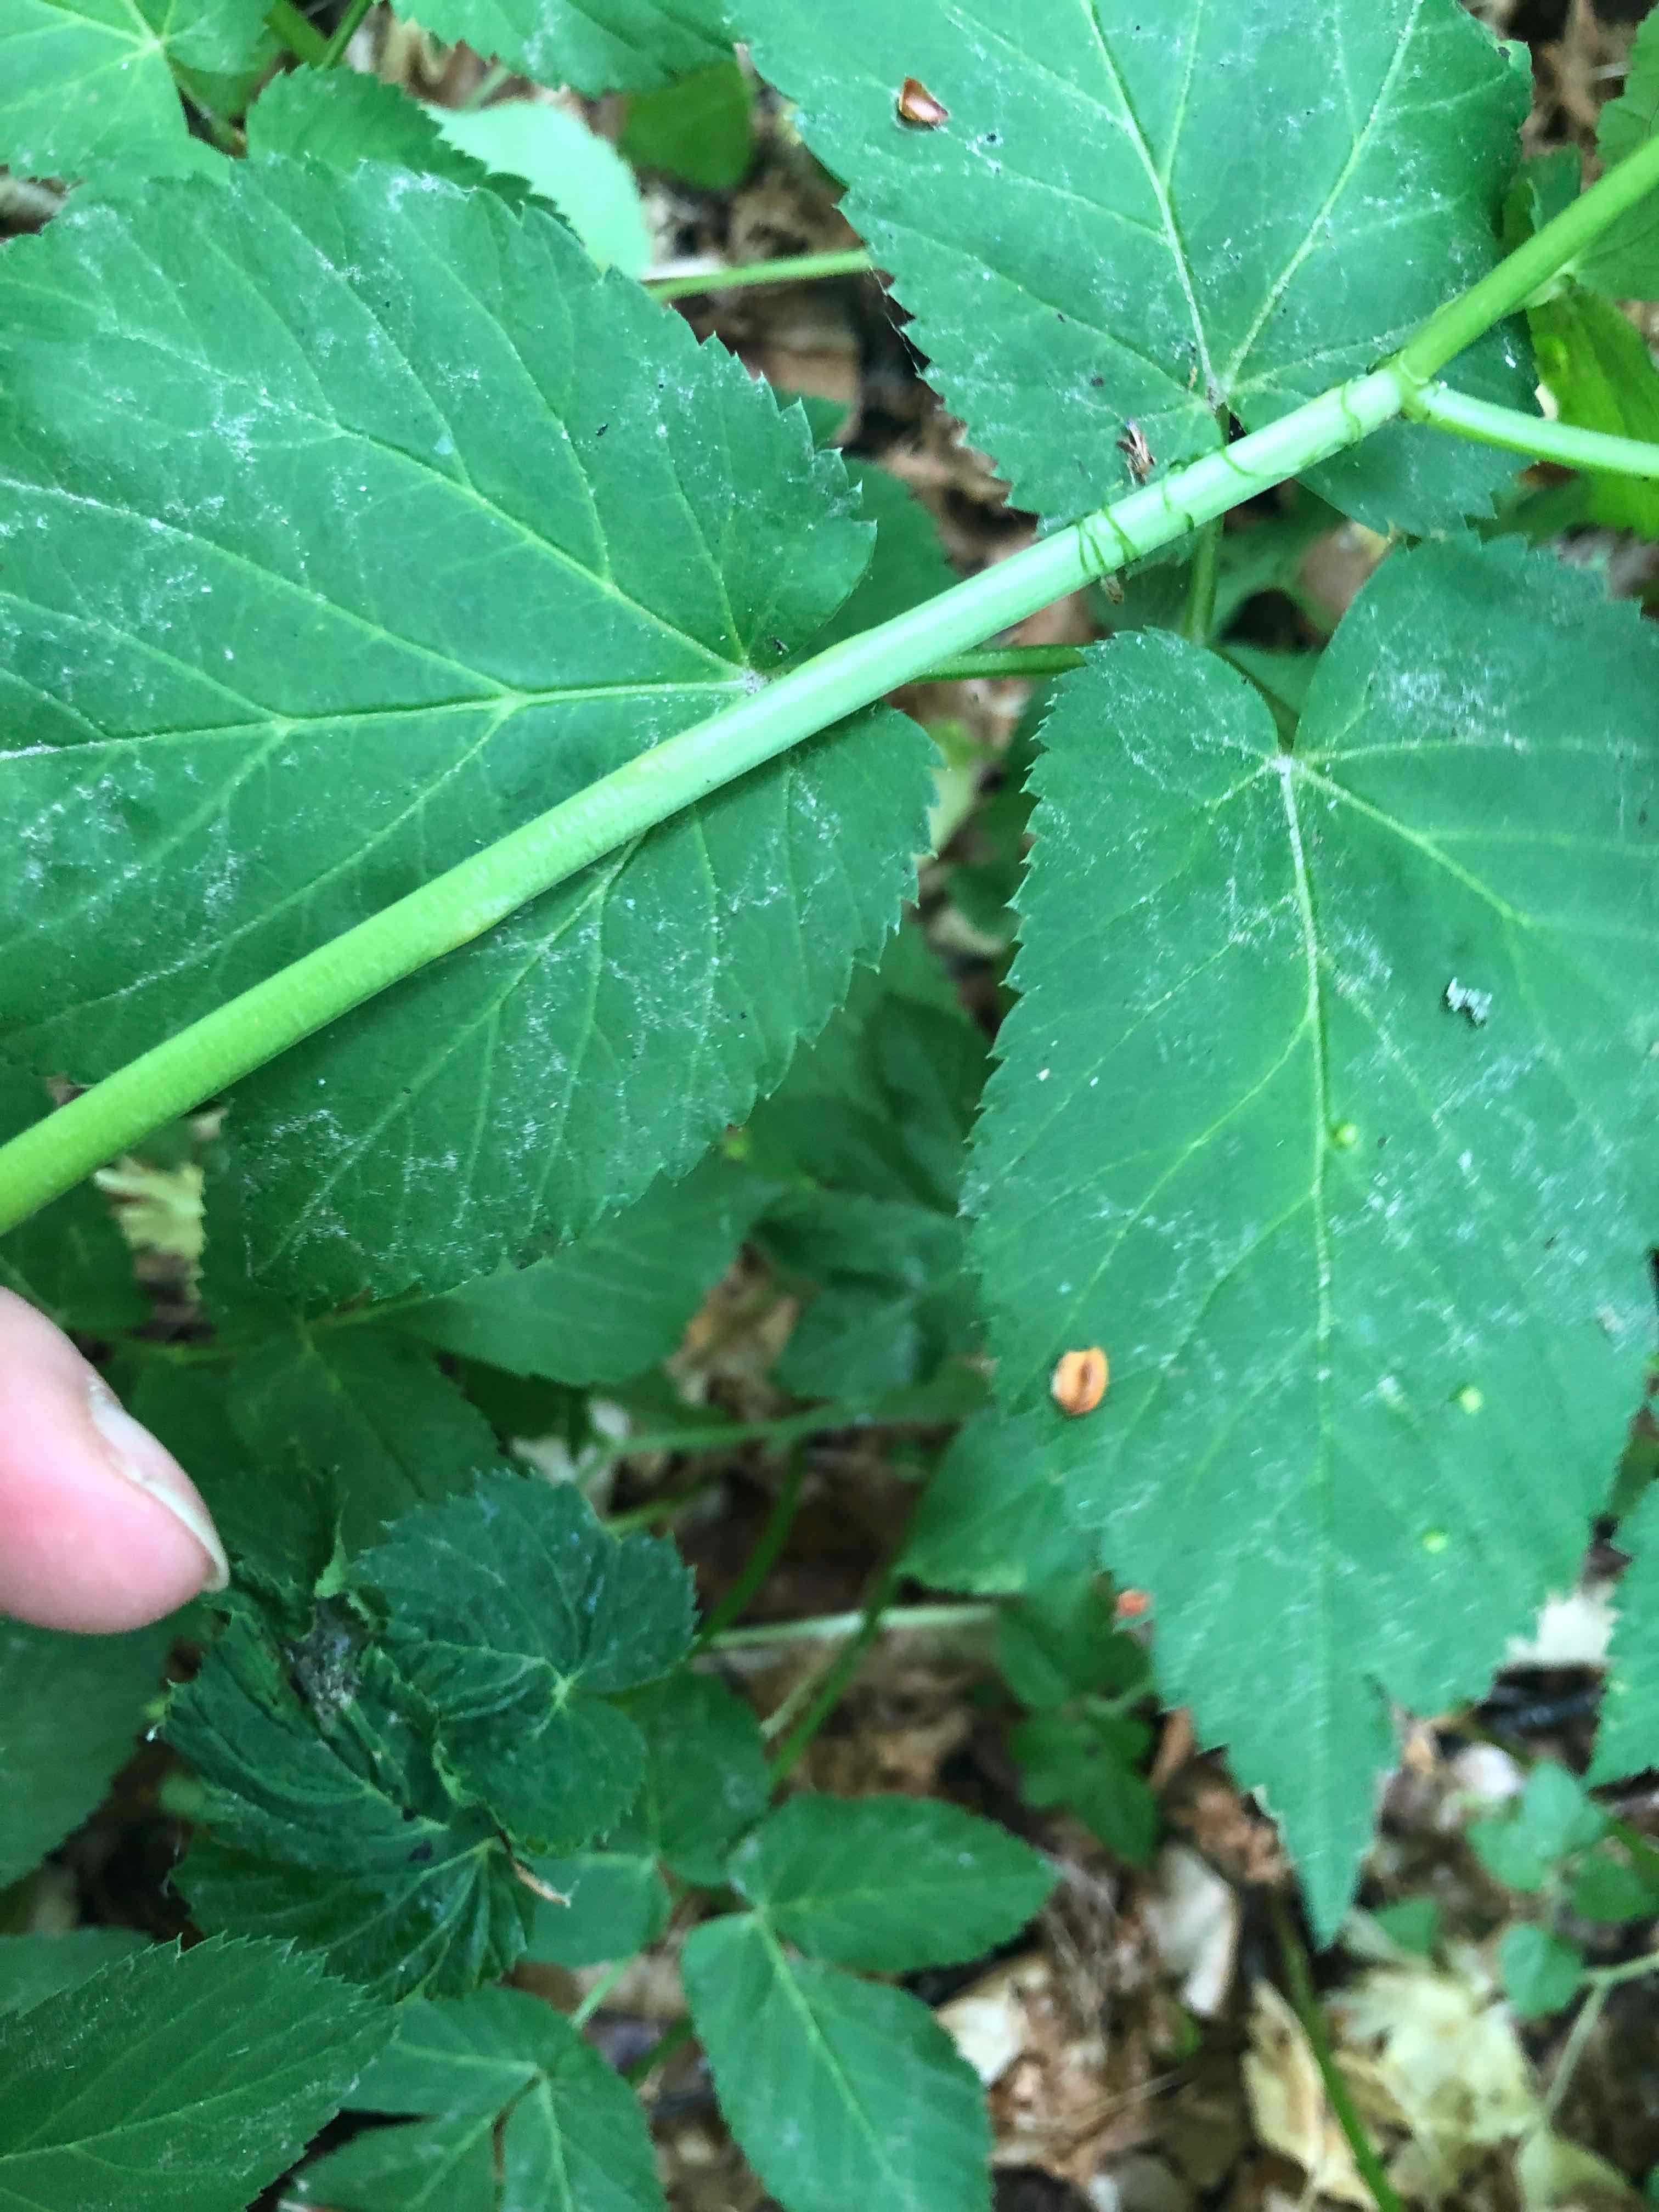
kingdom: Fungi
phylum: Ascomycota
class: Taphrinomycetes
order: Taphrinales
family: Taphrinaceae
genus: Protomyces
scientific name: Protomyces macrosporus
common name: skvalderkål-vablesæk
